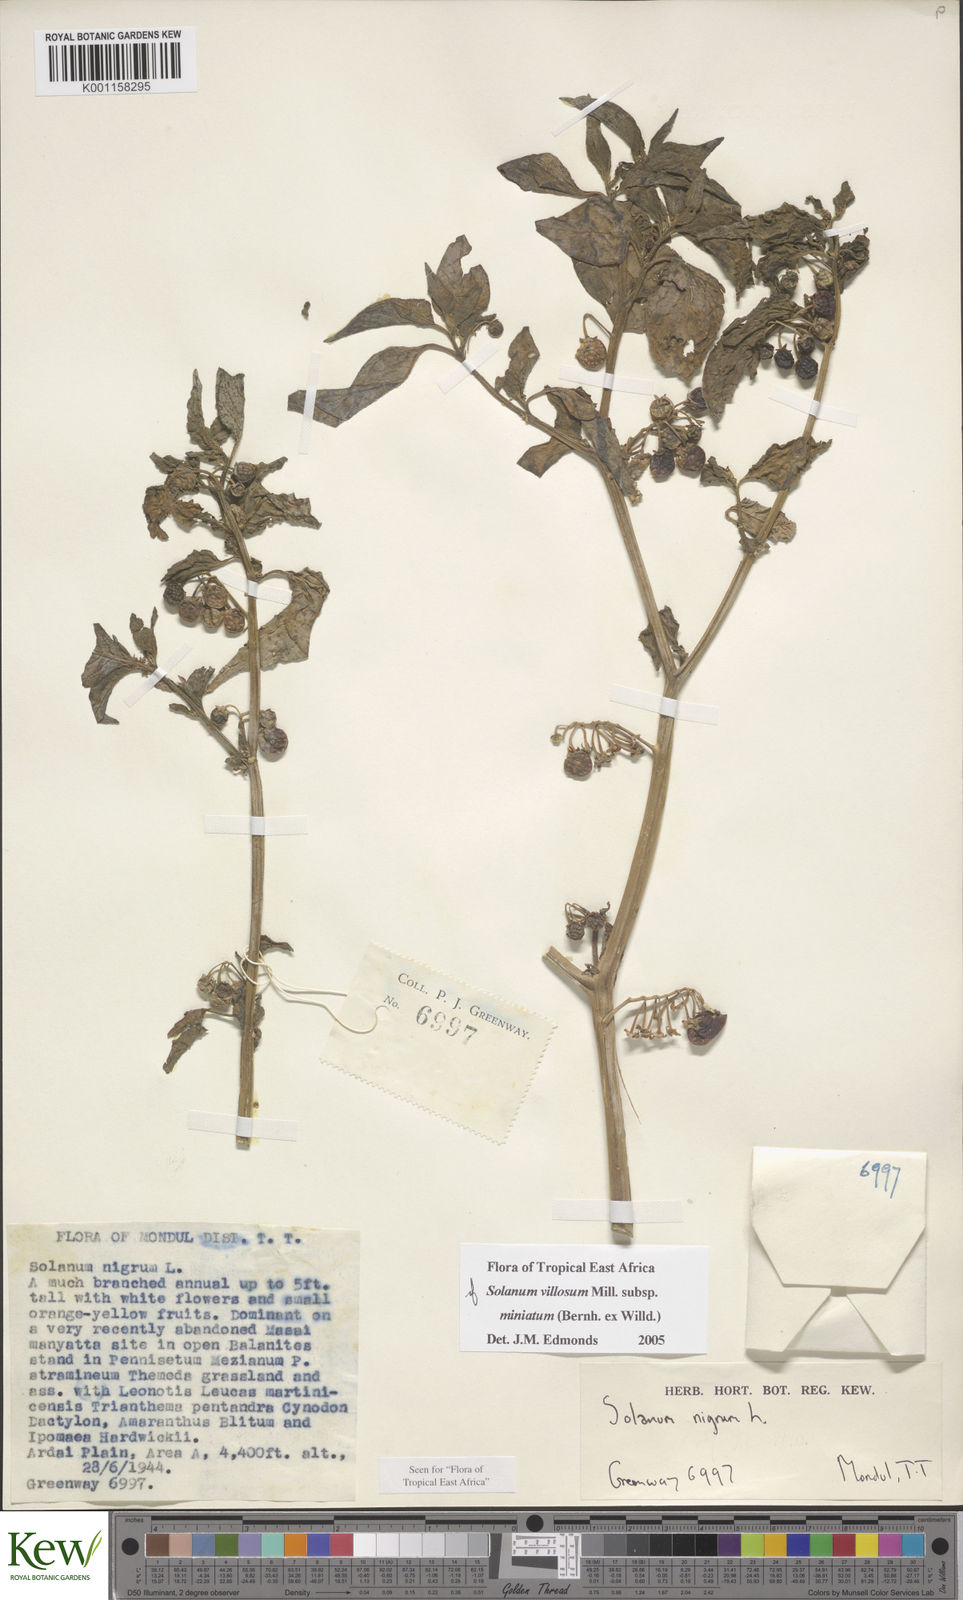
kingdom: Plantae
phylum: Tracheophyta
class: Magnoliopsida
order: Solanales
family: Solanaceae
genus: Solanum
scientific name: Solanum villosum
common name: Red nightshade
